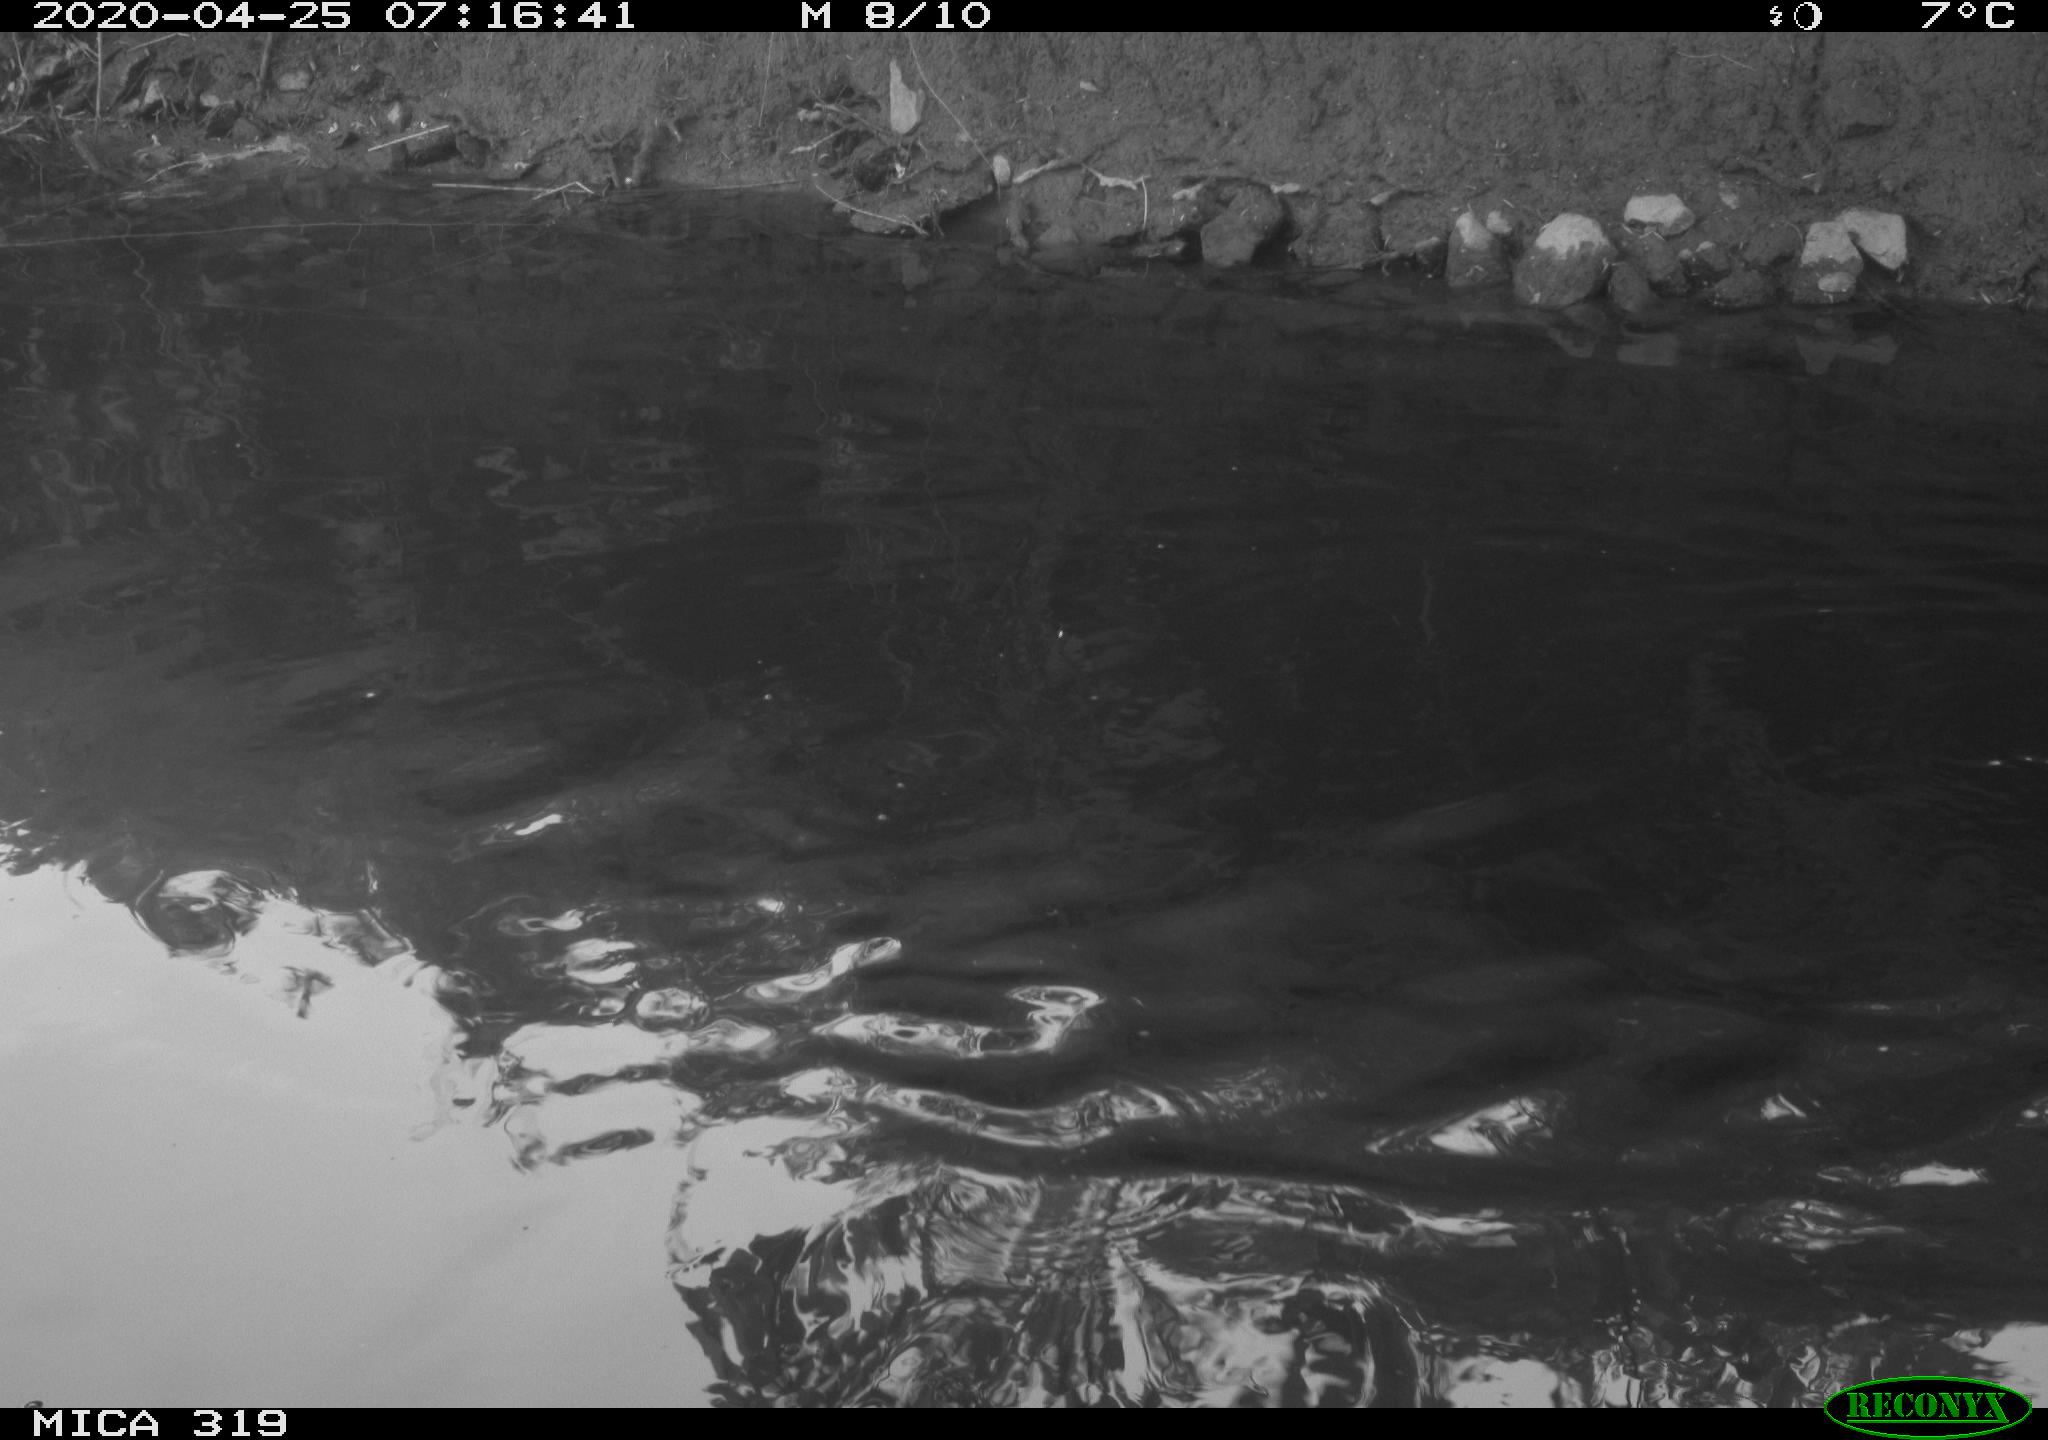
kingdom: Animalia
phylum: Chordata
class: Aves
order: Anseriformes
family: Anatidae
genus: Anas
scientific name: Anas platyrhynchos
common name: Mallard
